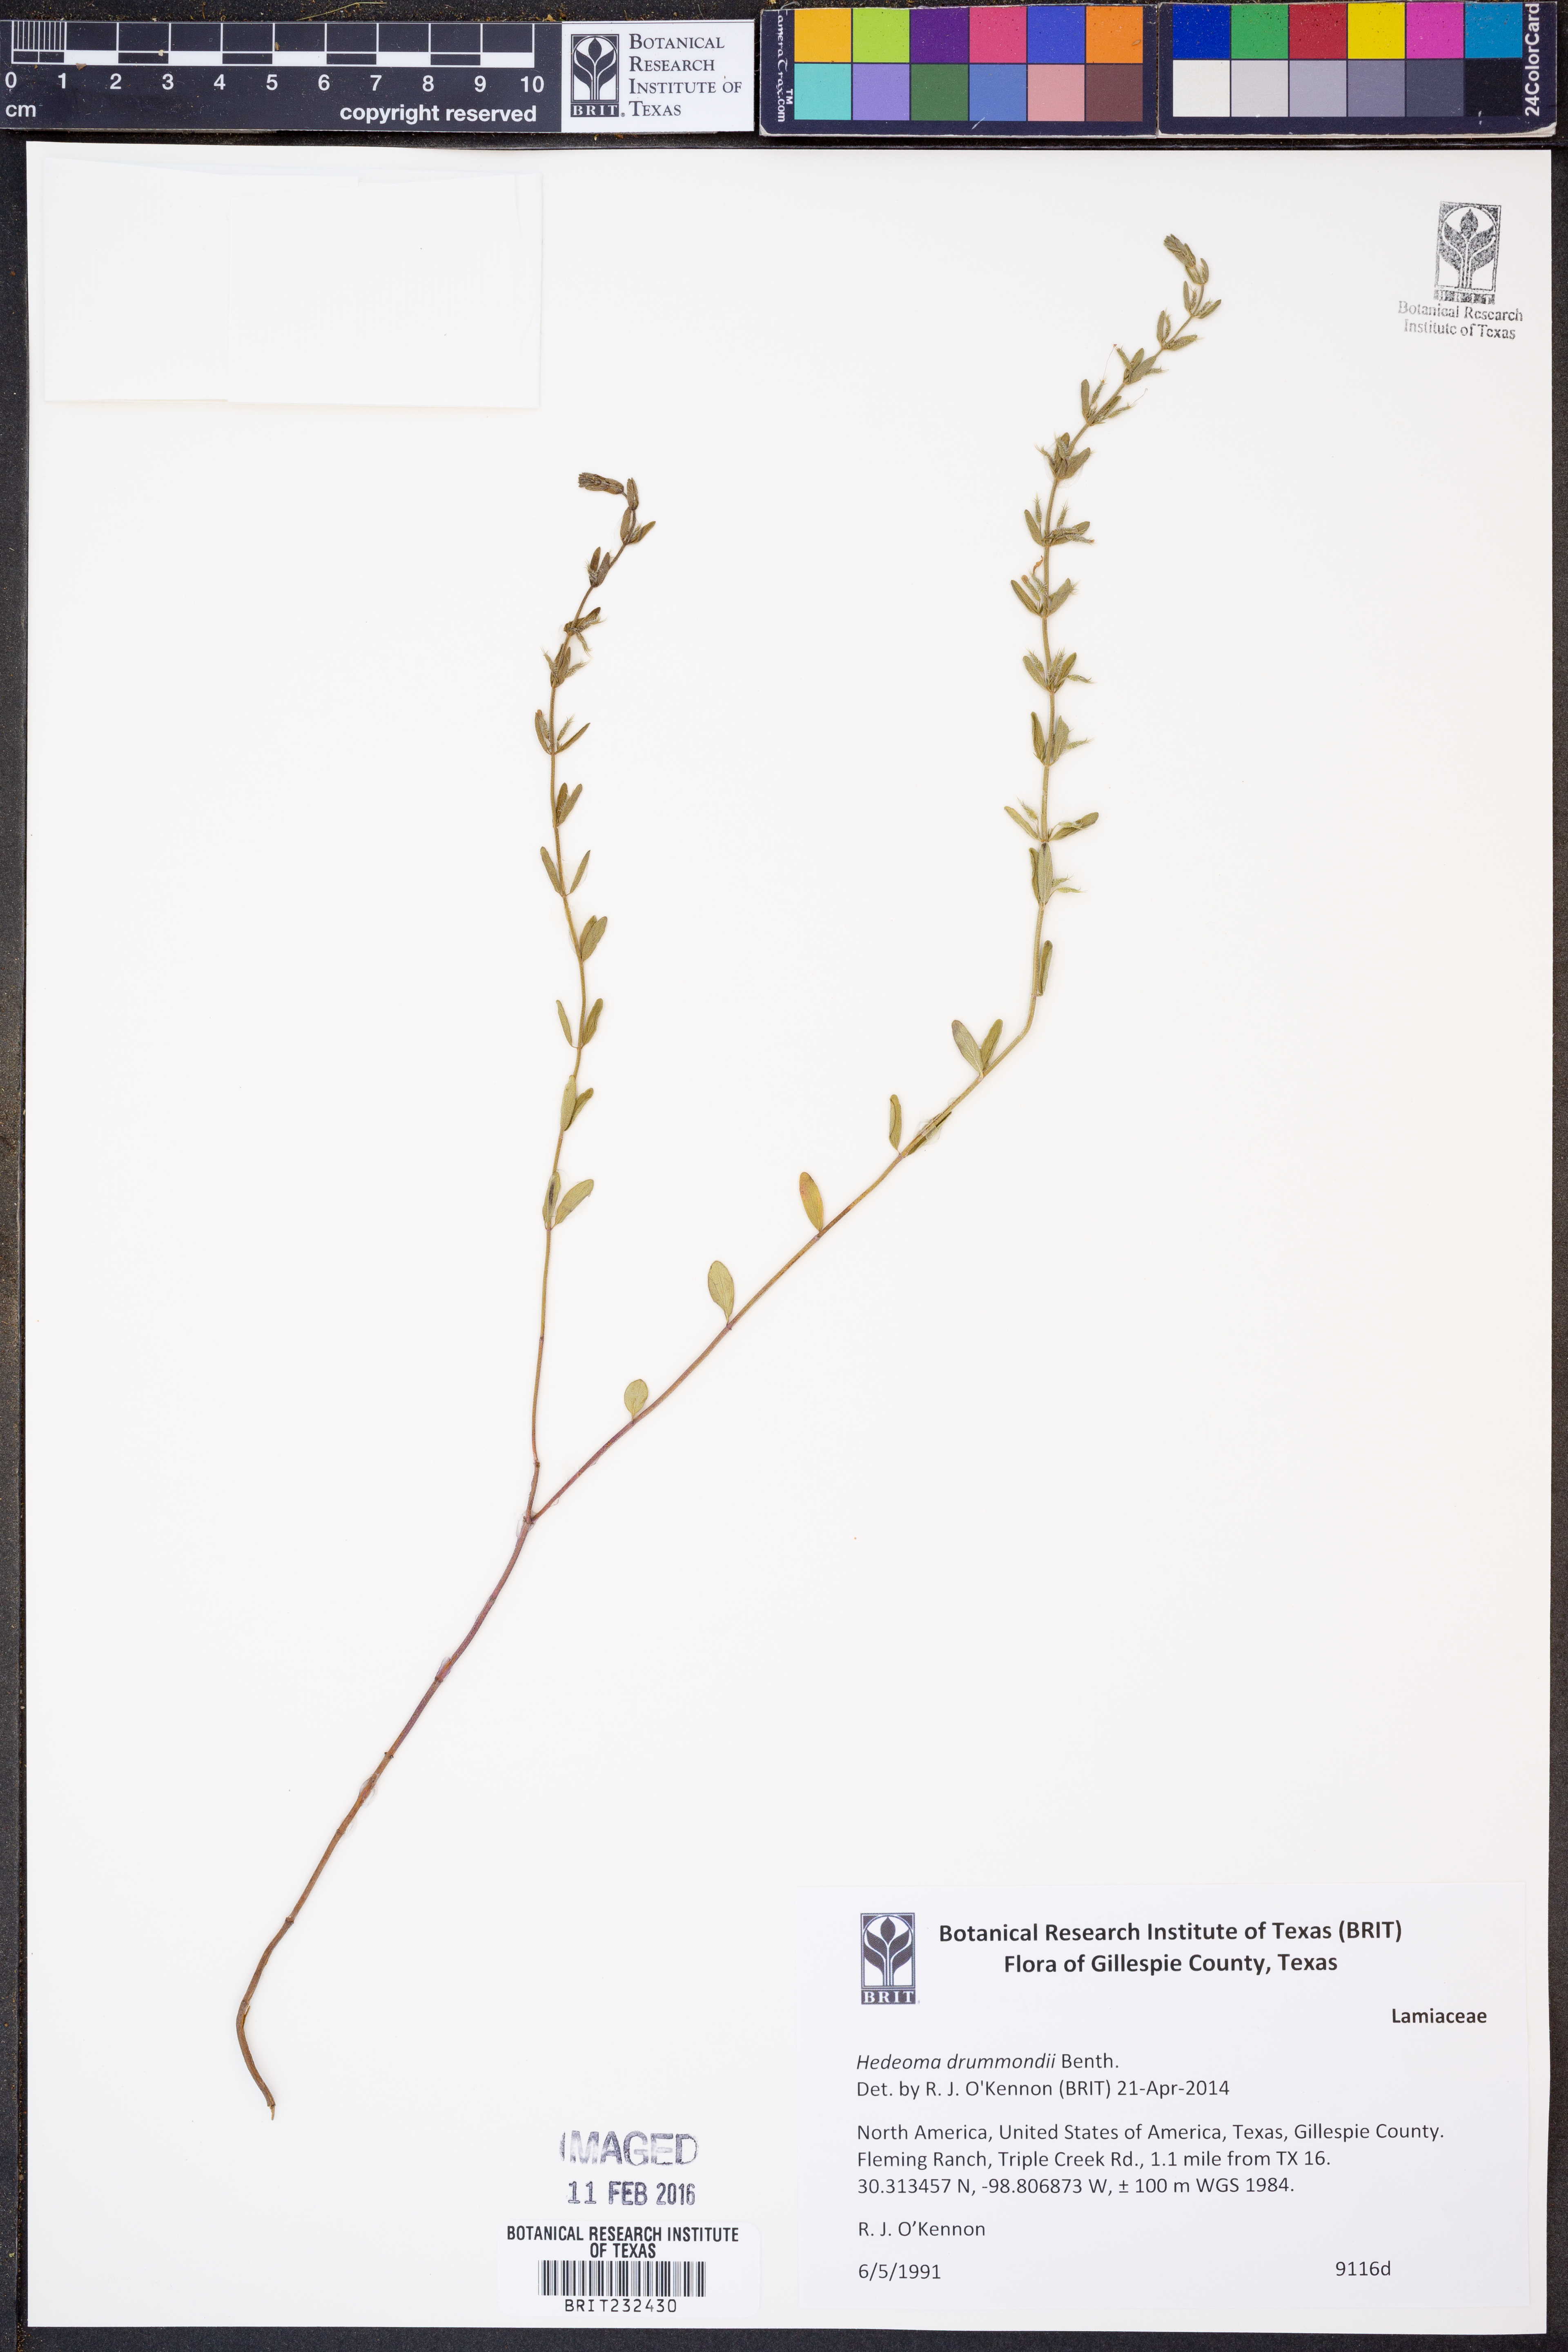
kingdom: Plantae
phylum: Tracheophyta
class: Magnoliopsida
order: Lamiales
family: Lamiaceae
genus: Hedeoma
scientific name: Hedeoma drummondii
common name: New mexico pennyroyal
